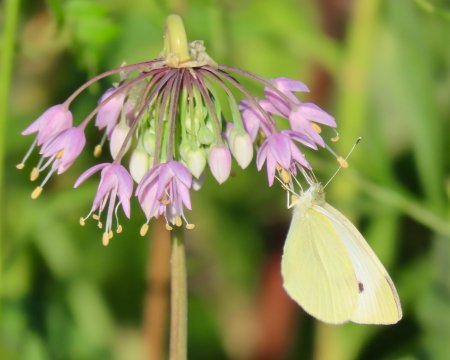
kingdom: Animalia
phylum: Arthropoda
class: Insecta
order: Lepidoptera
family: Pieridae
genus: Pieris
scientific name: Pieris rapae
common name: Cabbage White
